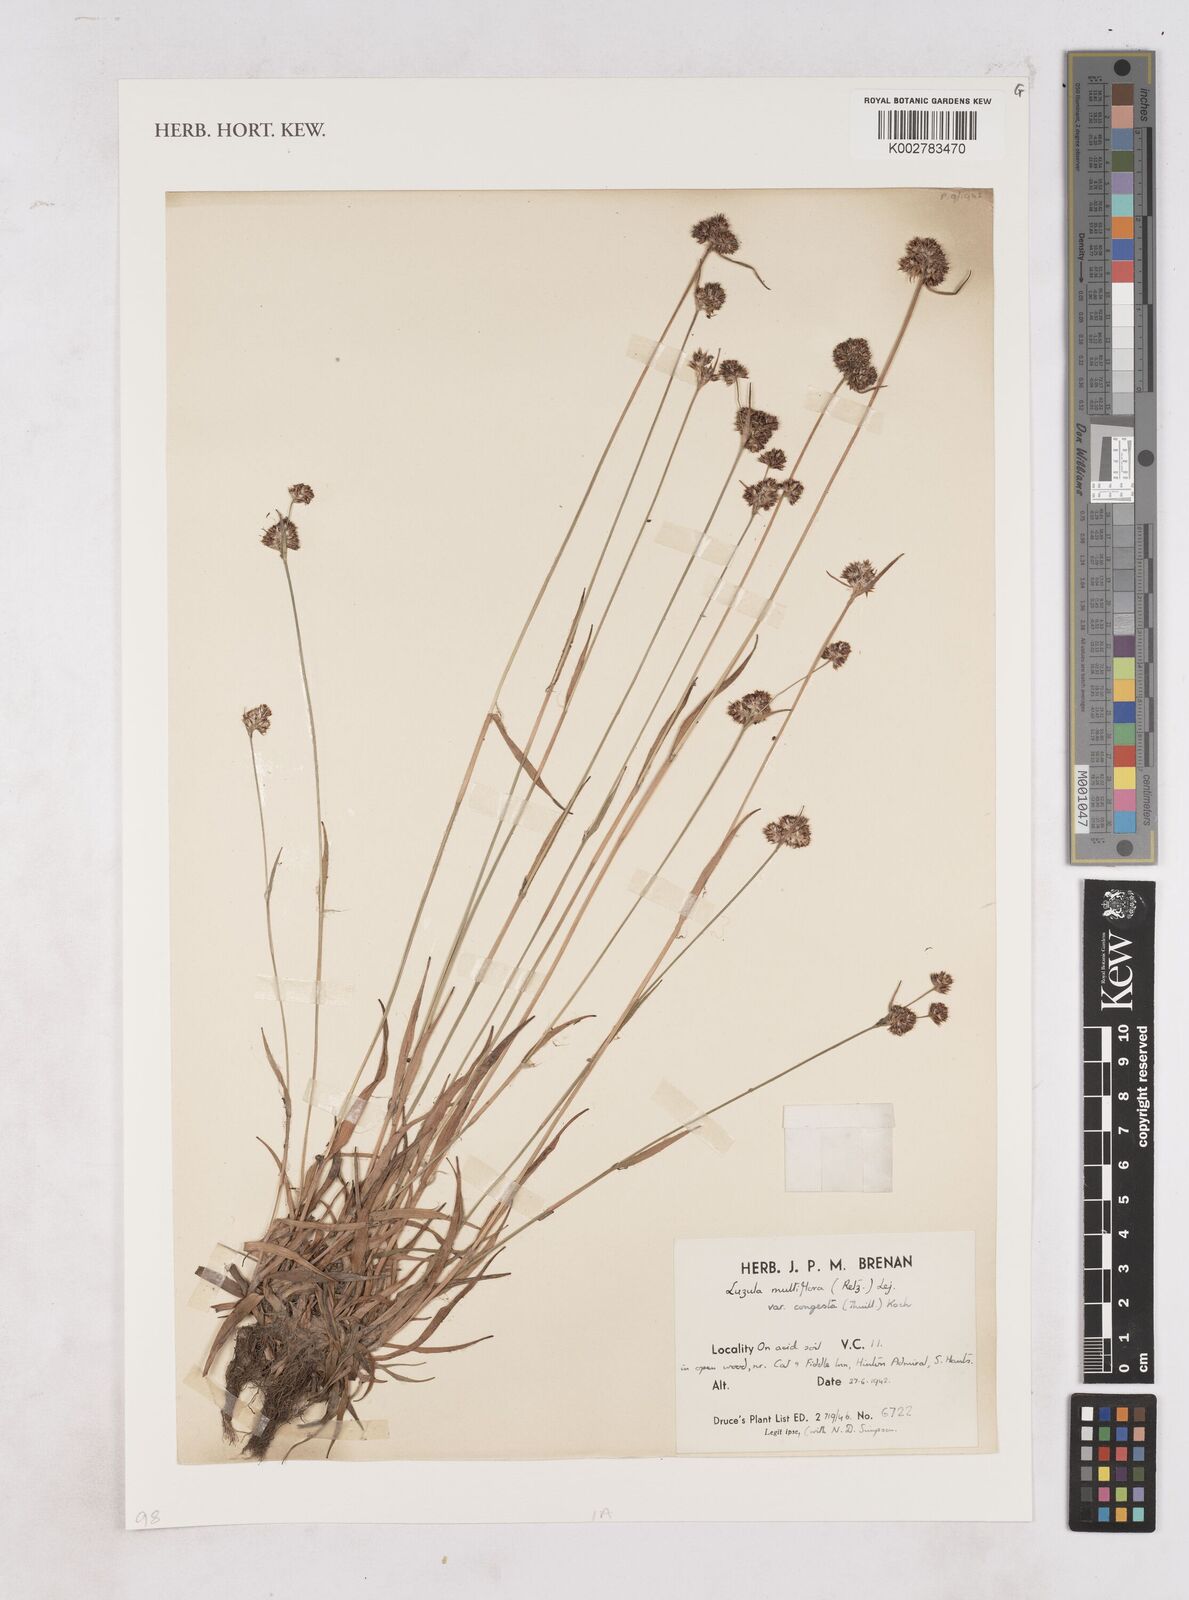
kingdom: Plantae
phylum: Tracheophyta
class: Liliopsida
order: Poales
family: Juncaceae
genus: Luzula
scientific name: Luzula multiflora
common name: Heath wood-rush
